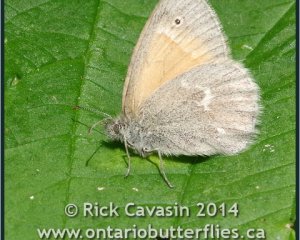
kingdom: Animalia
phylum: Arthropoda
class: Insecta
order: Lepidoptera
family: Nymphalidae
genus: Coenonympha
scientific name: Coenonympha tullia
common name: Large Heath
